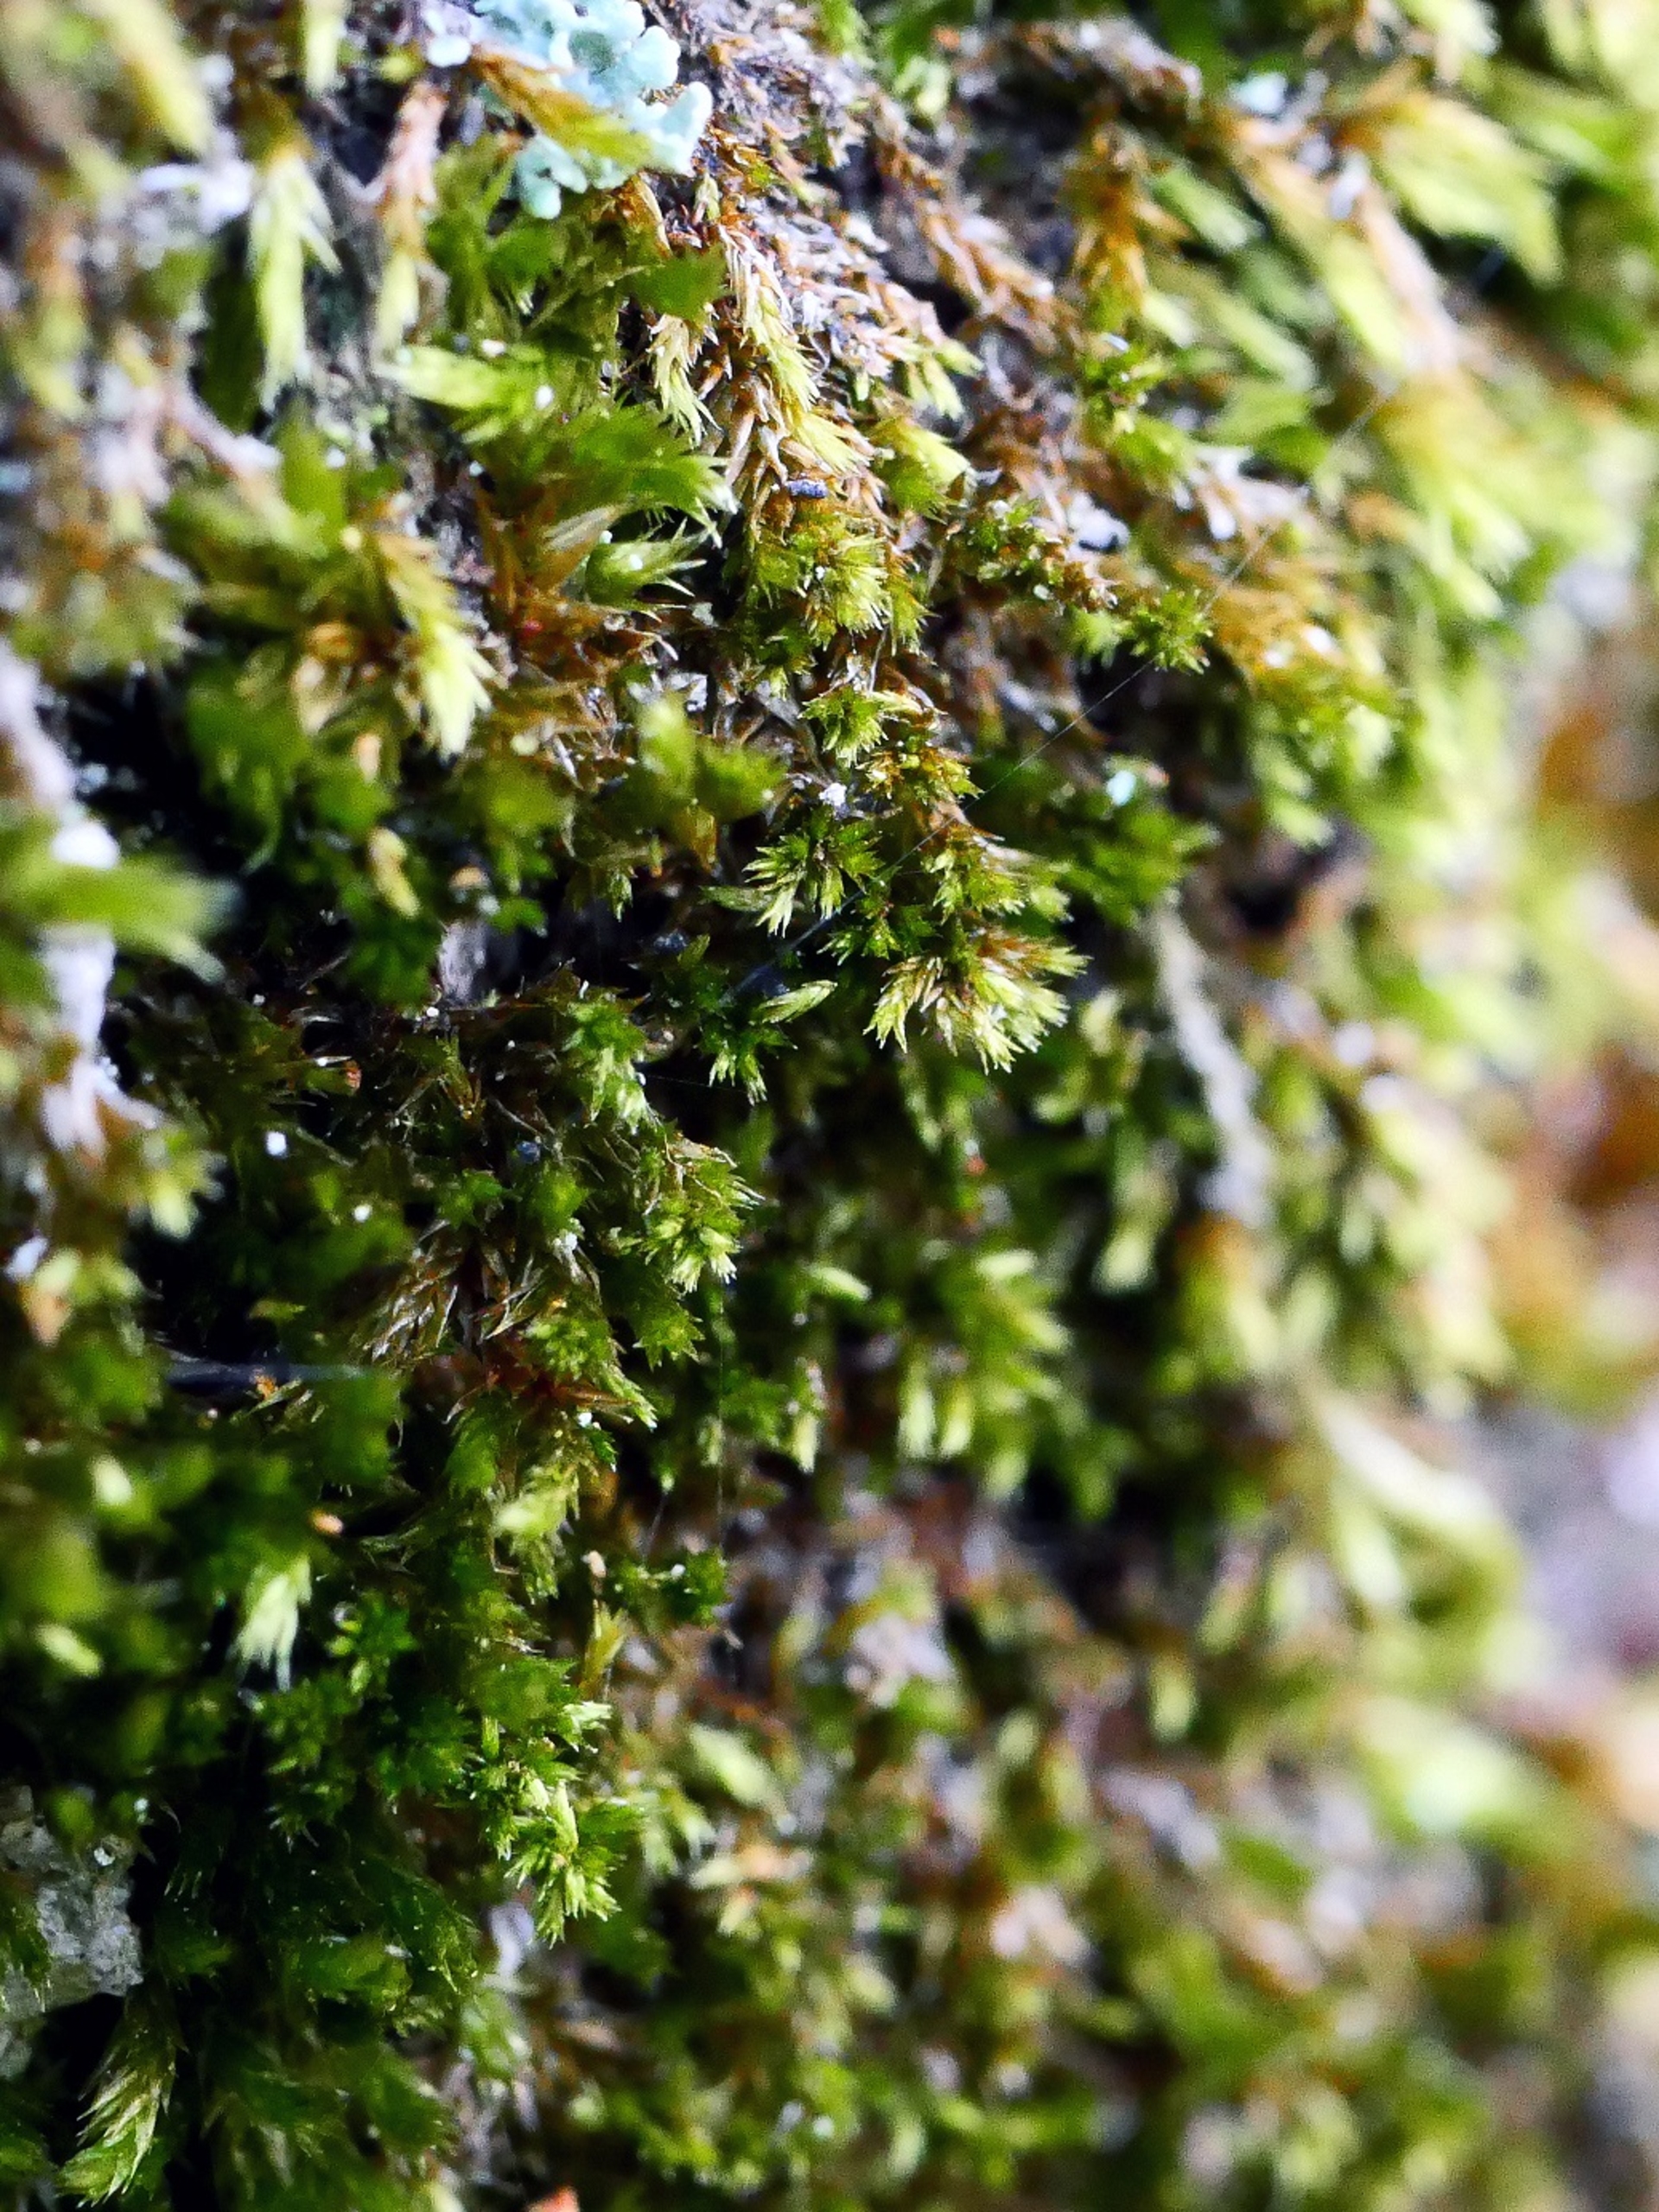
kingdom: Plantae
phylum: Bryophyta
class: Bryopsida
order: Hypnales
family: Pylaisiadelphaceae
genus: Platygyrium
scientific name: Platygyrium repens
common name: Mørk yngleknop
